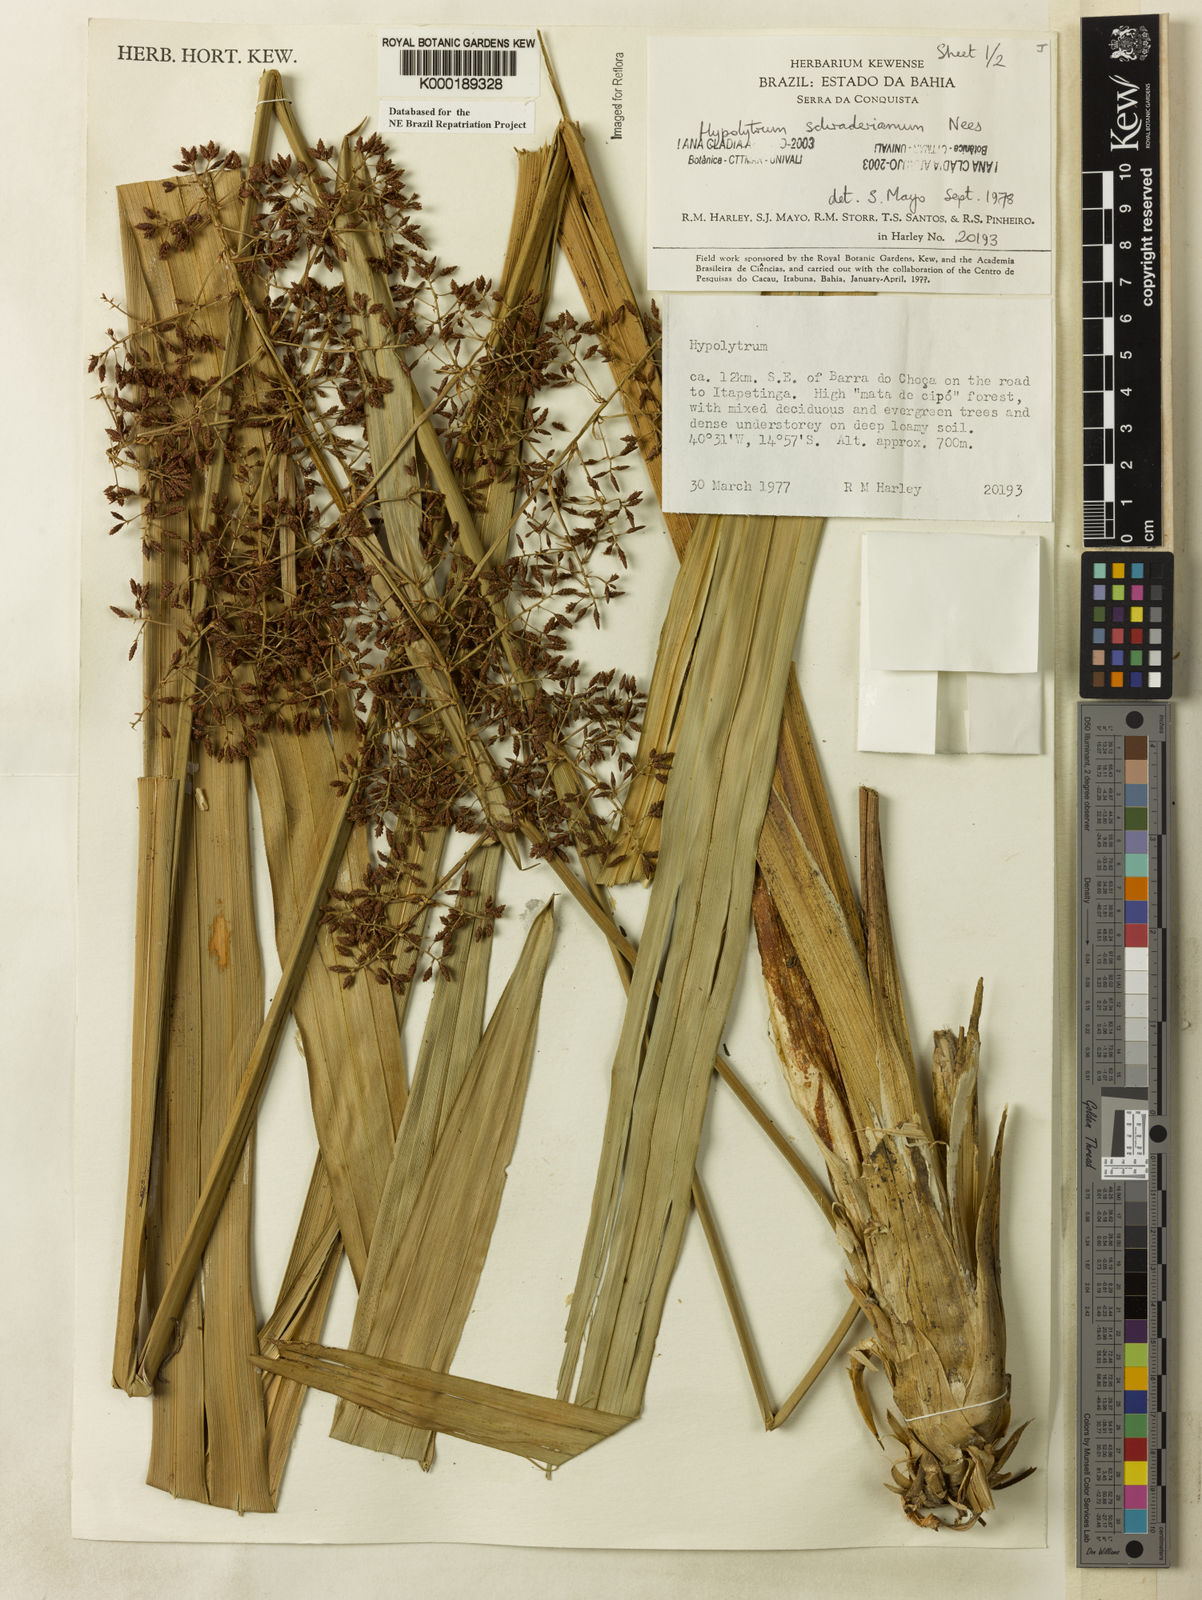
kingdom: Plantae
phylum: Tracheophyta
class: Liliopsida
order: Poales
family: Cyperaceae
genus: Hypolytrum
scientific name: Hypolytrum schraderianum
